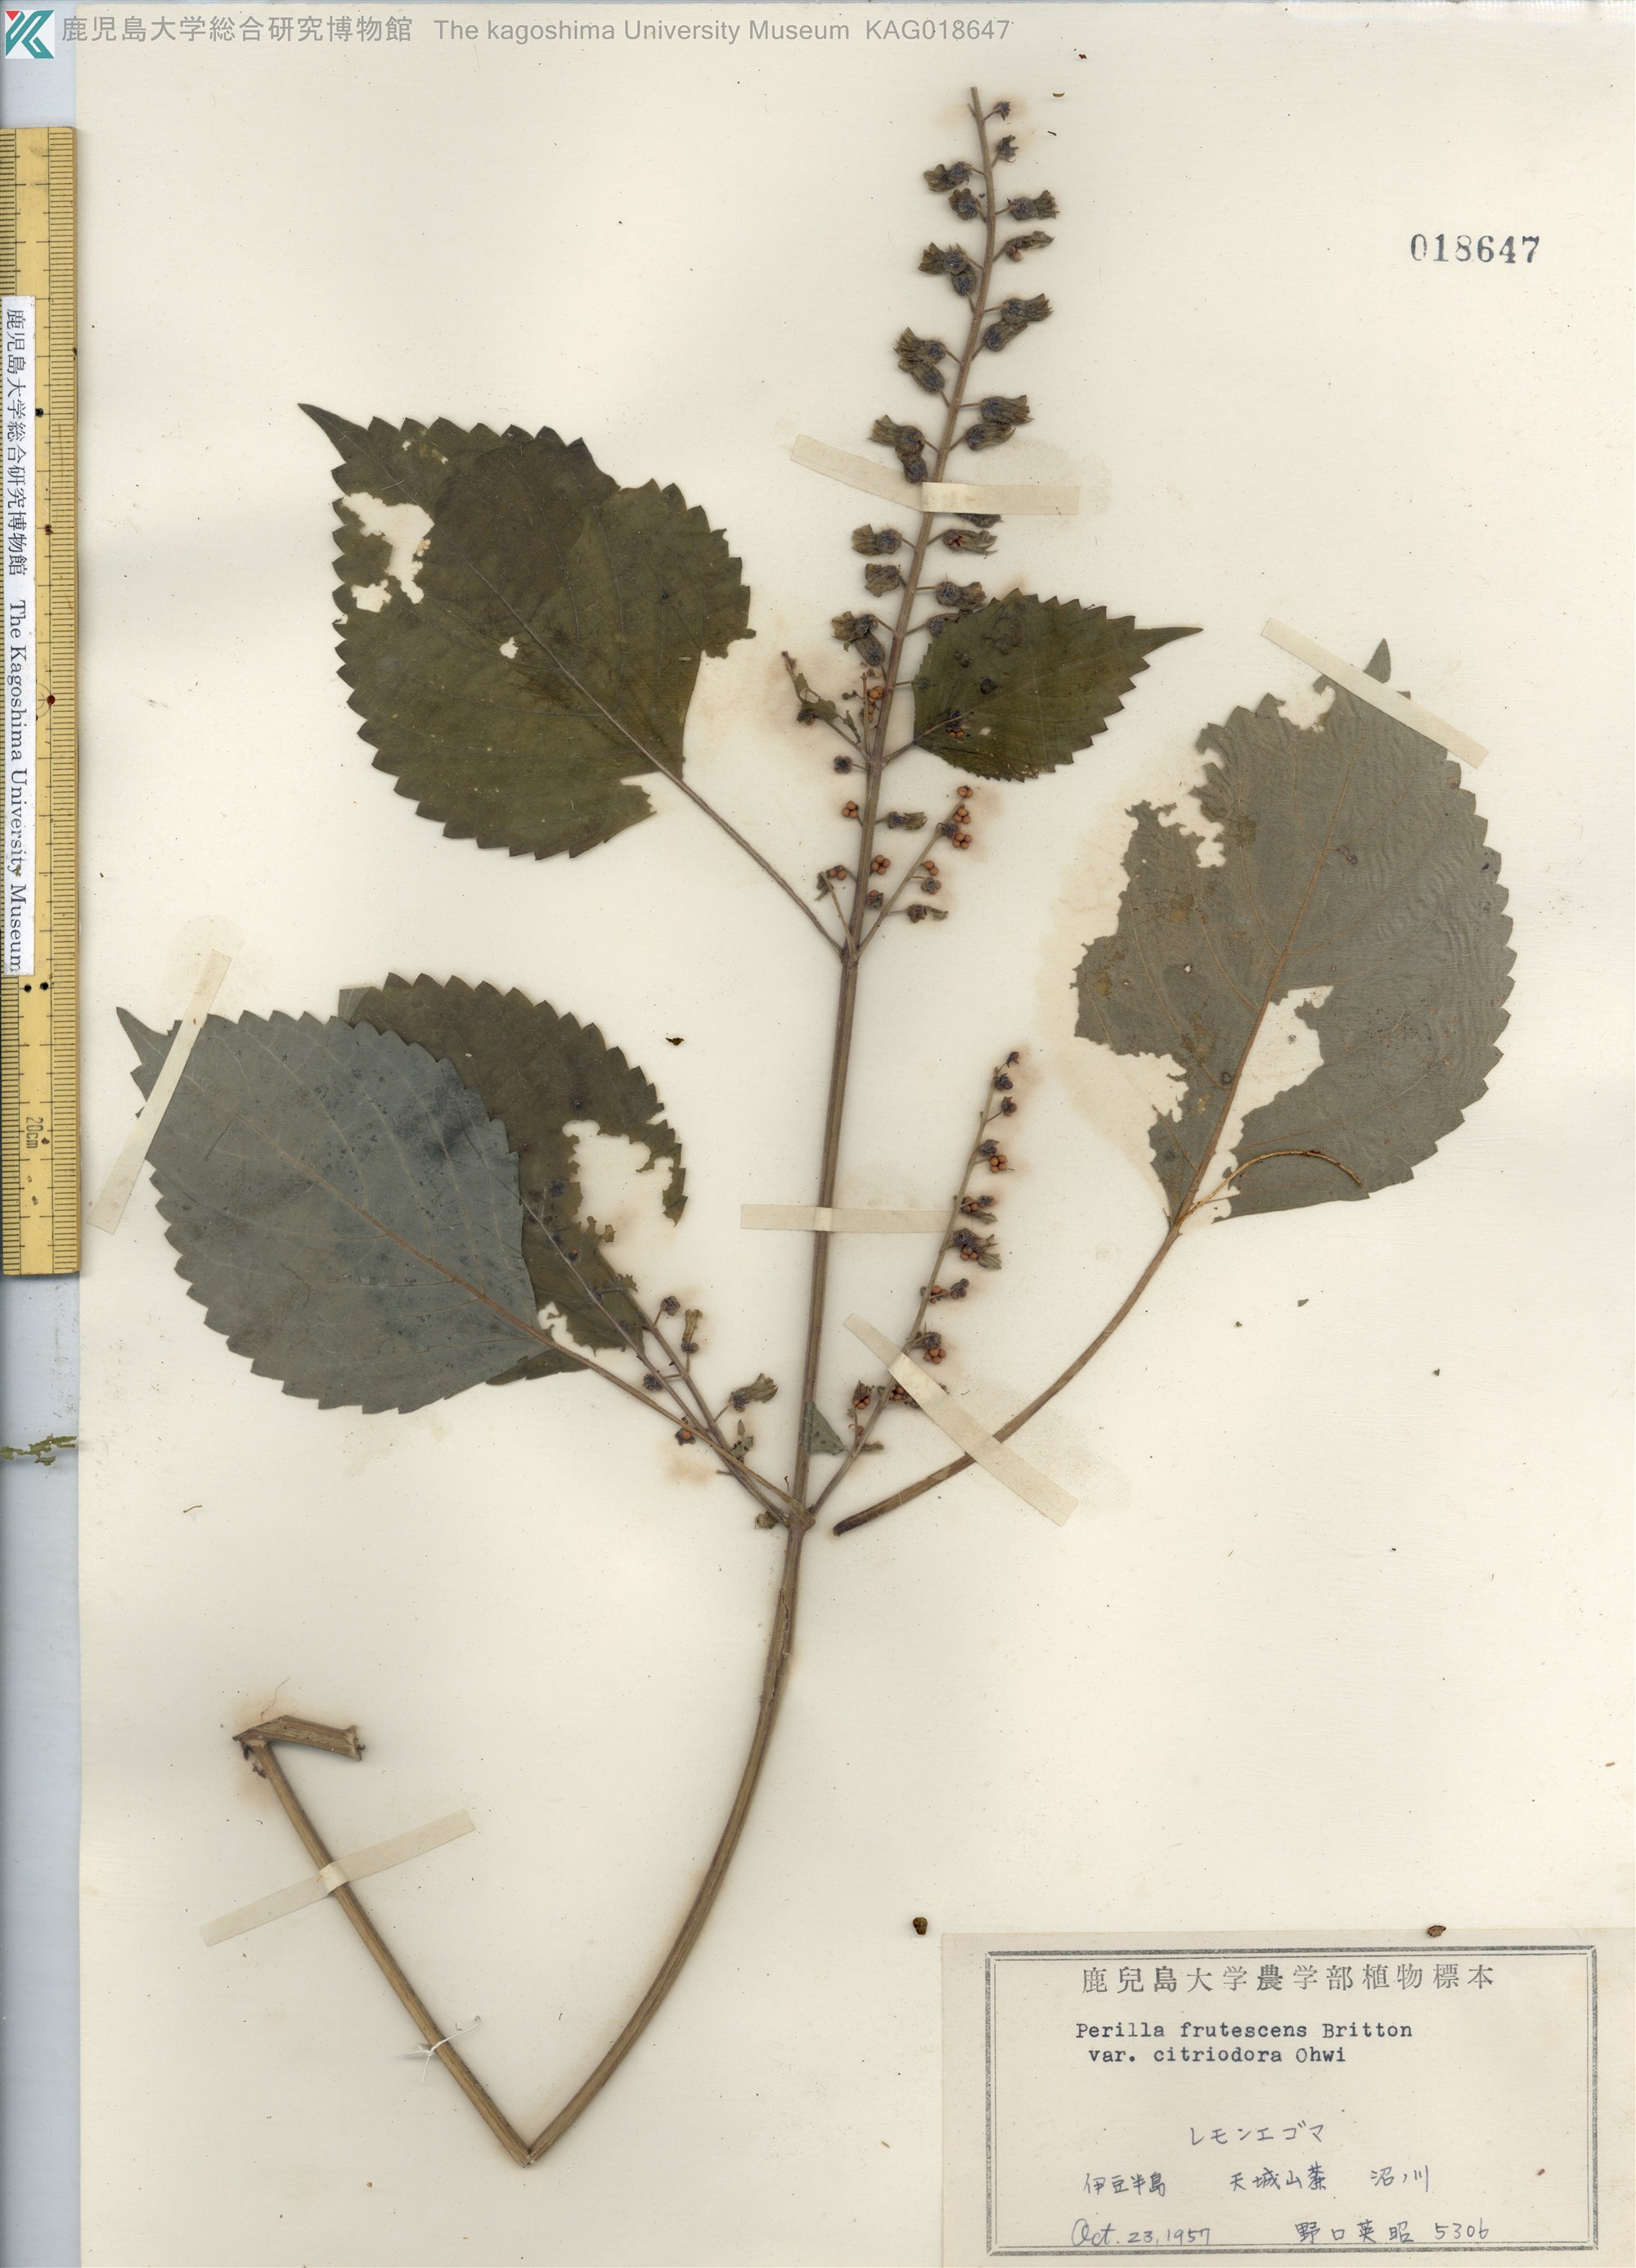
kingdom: Plantae
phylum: Tracheophyta
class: Magnoliopsida
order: Lamiales
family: Lamiaceae
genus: Perilla
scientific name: Perilla frutescens
